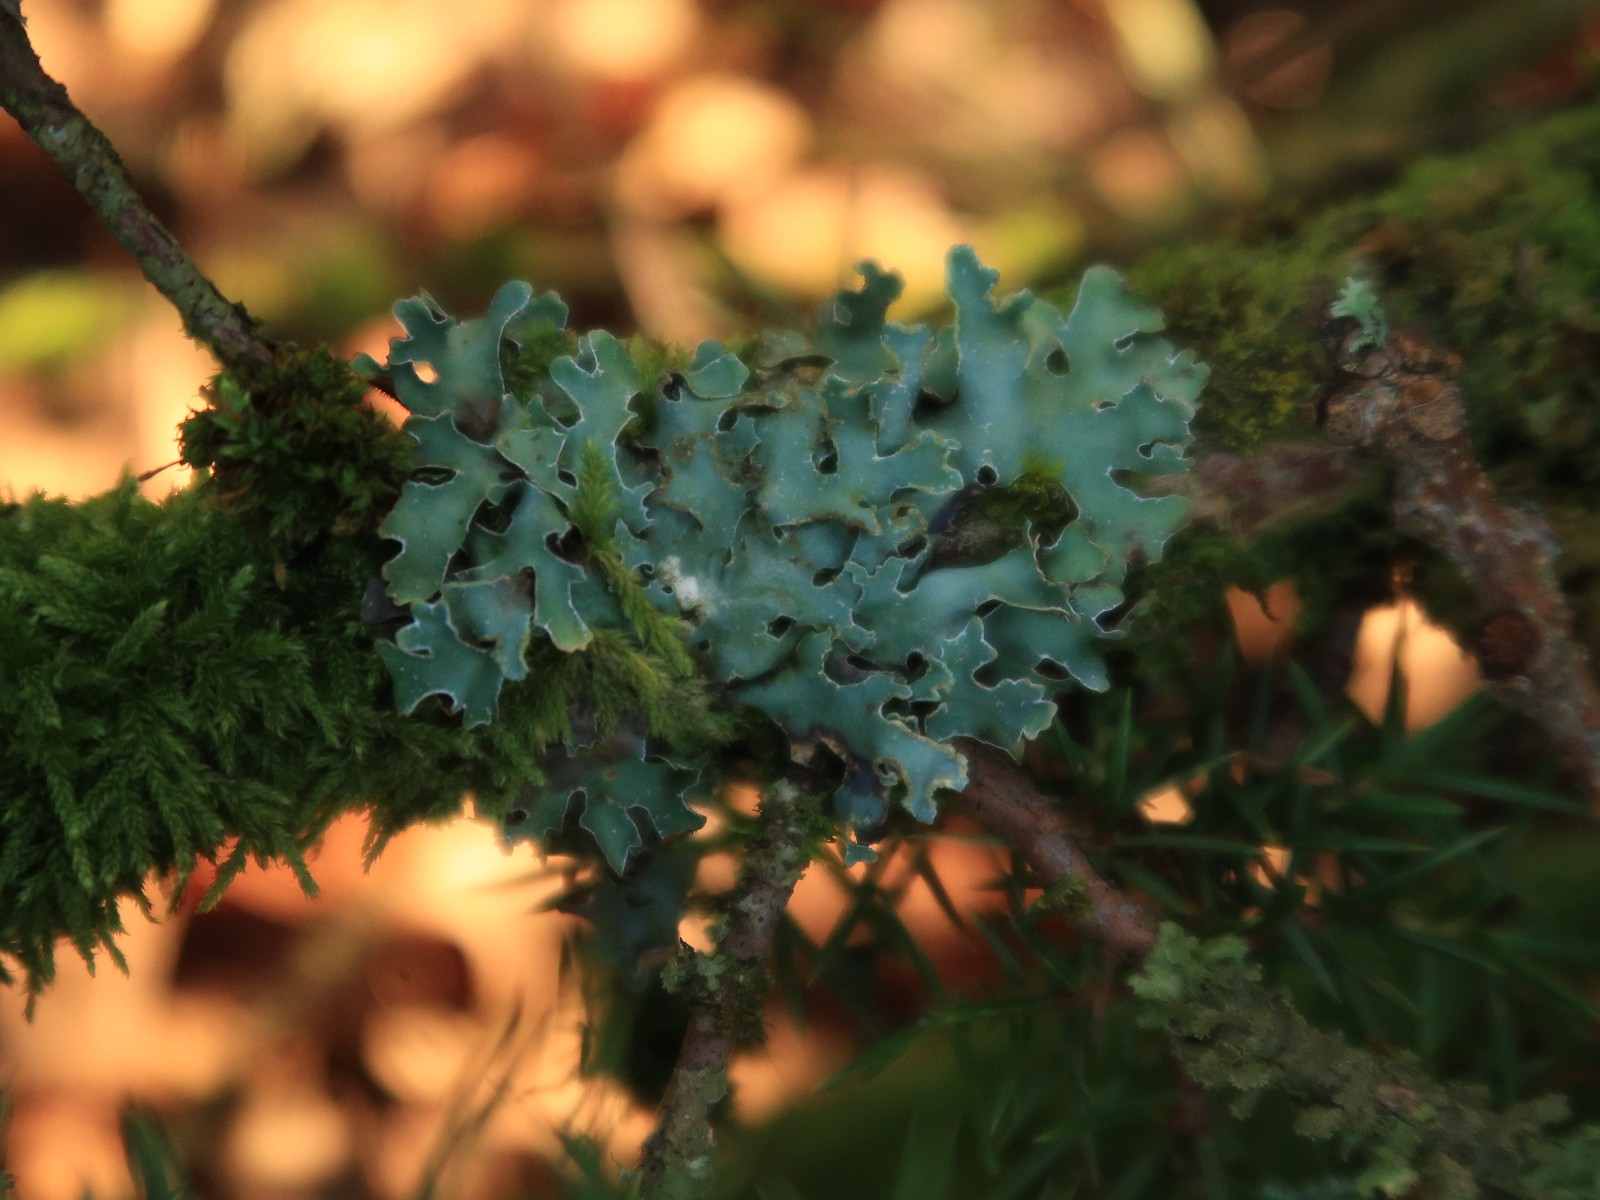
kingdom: Fungi
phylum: Ascomycota
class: Lecanoromycetes
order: Lecanorales
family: Parmeliaceae
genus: Parmelia
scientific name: Parmelia sulcata
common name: rynket skållav
